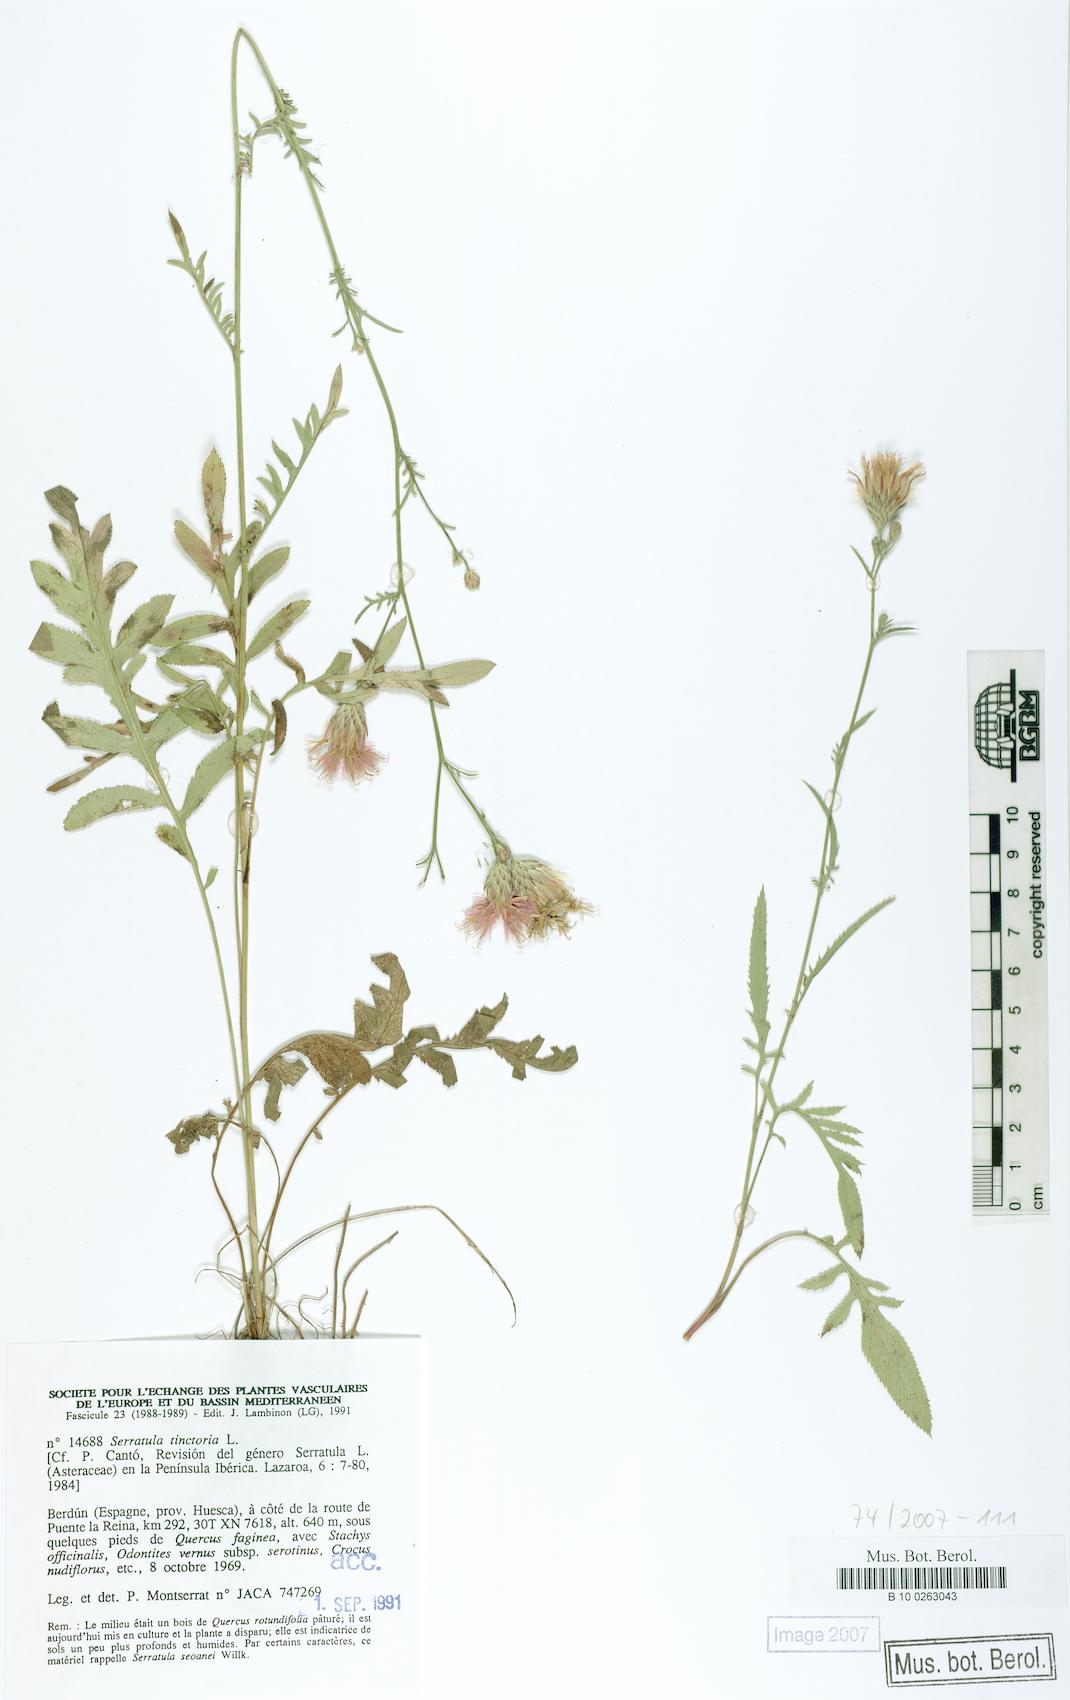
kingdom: Plantae
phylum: Tracheophyta
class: Magnoliopsida
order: Asterales
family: Asteraceae
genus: Serratula
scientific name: Serratula tinctoria
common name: Saw-wort
